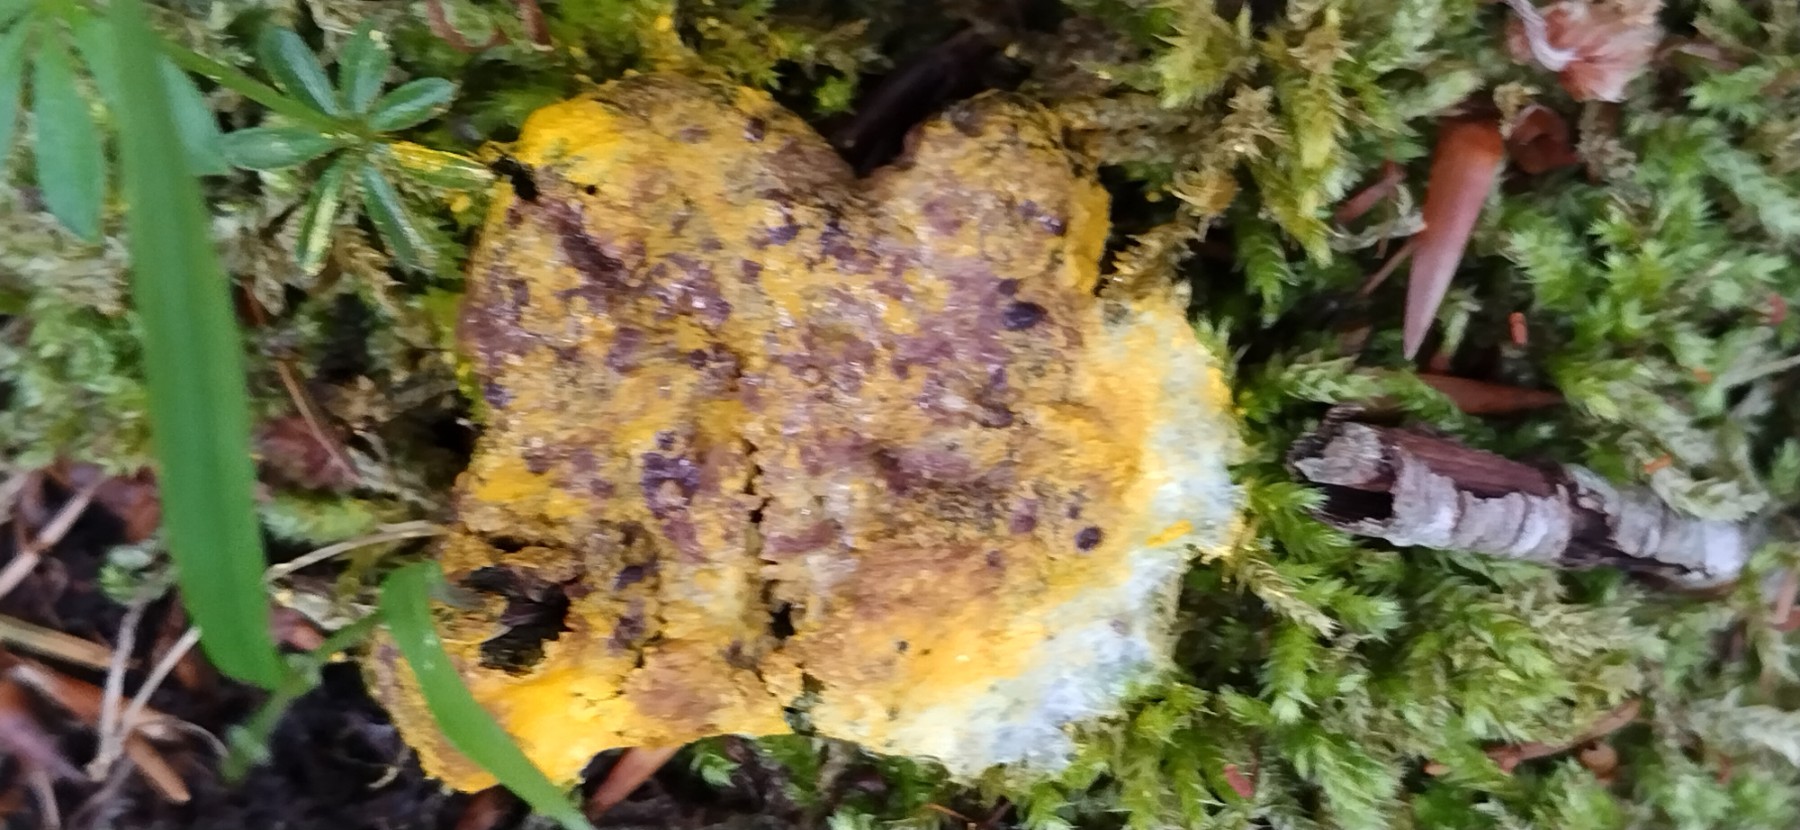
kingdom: Protozoa
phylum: Mycetozoa
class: Myxomycetes
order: Physarales
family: Physaraceae
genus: Fuligo
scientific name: Fuligo septica
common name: gul troldsmør
